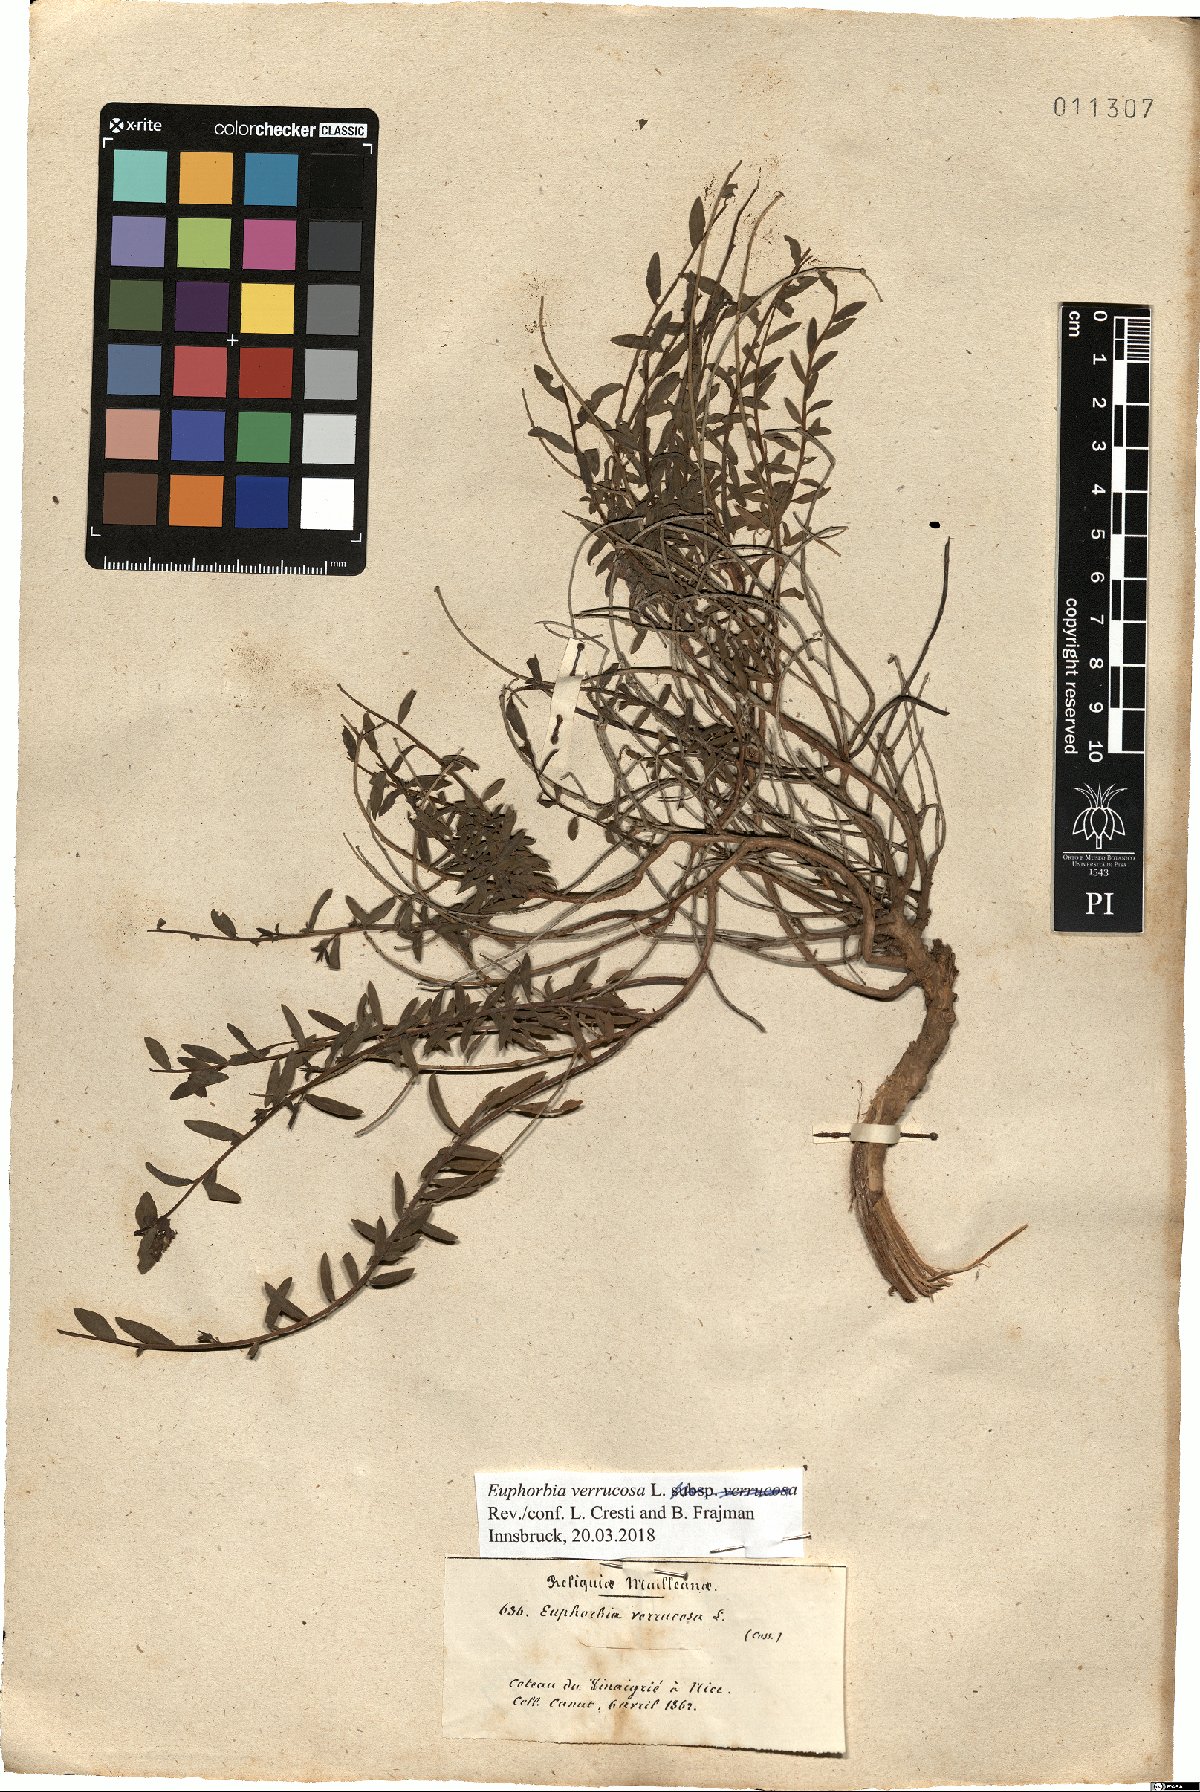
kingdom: Plantae
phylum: Tracheophyta
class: Magnoliopsida
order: Malpighiales
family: Euphorbiaceae
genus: Euphorbia
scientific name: Euphorbia verrucosa
